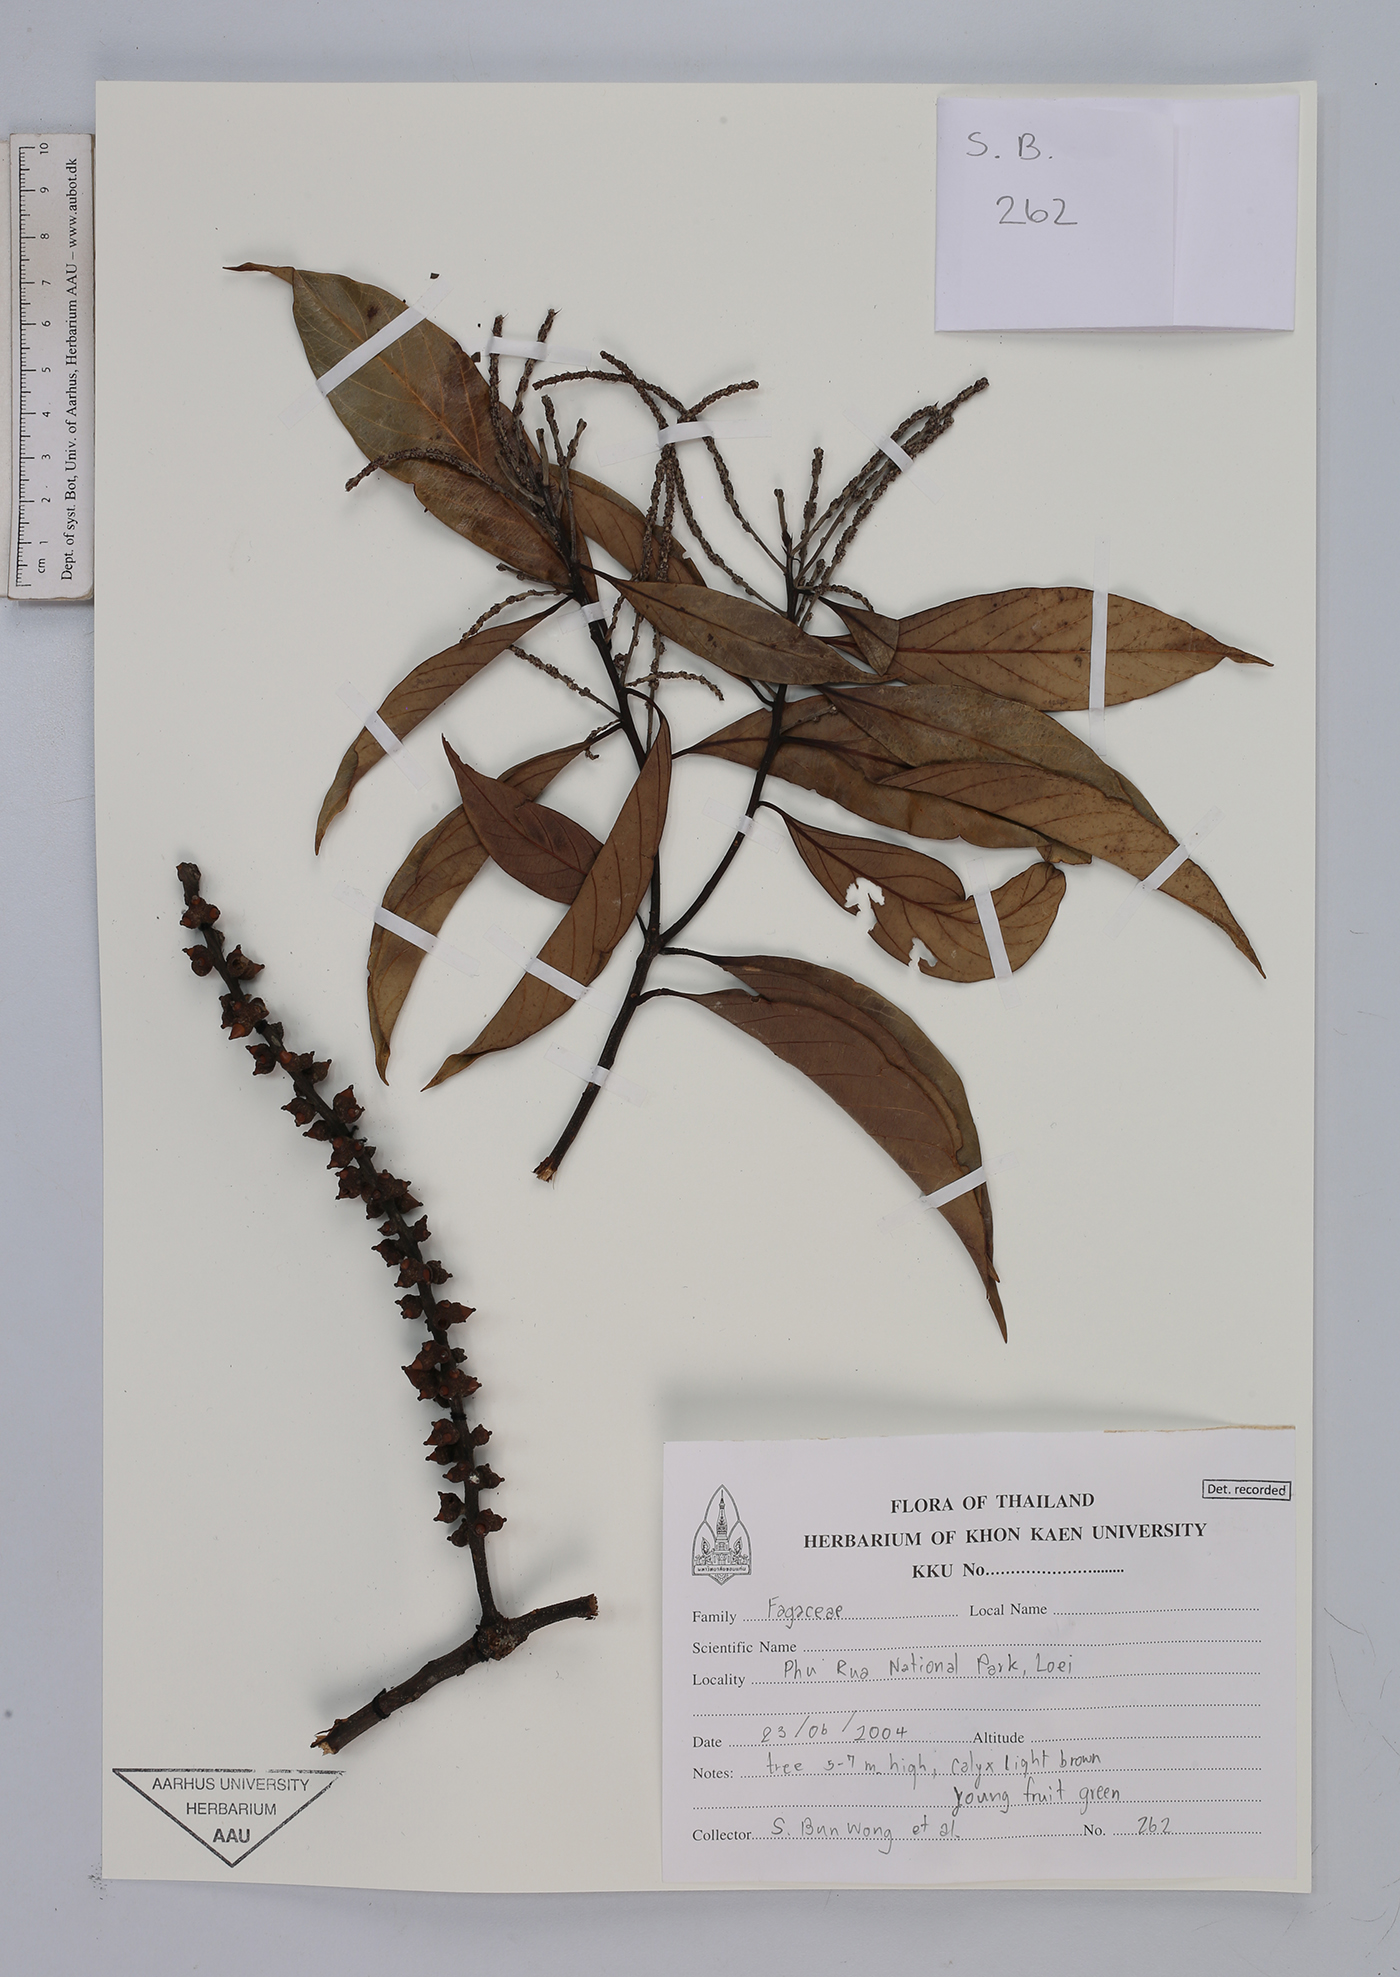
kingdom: Plantae
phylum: Tracheophyta
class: Magnoliopsida
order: Fagales
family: Fagaceae
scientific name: Fagaceae
